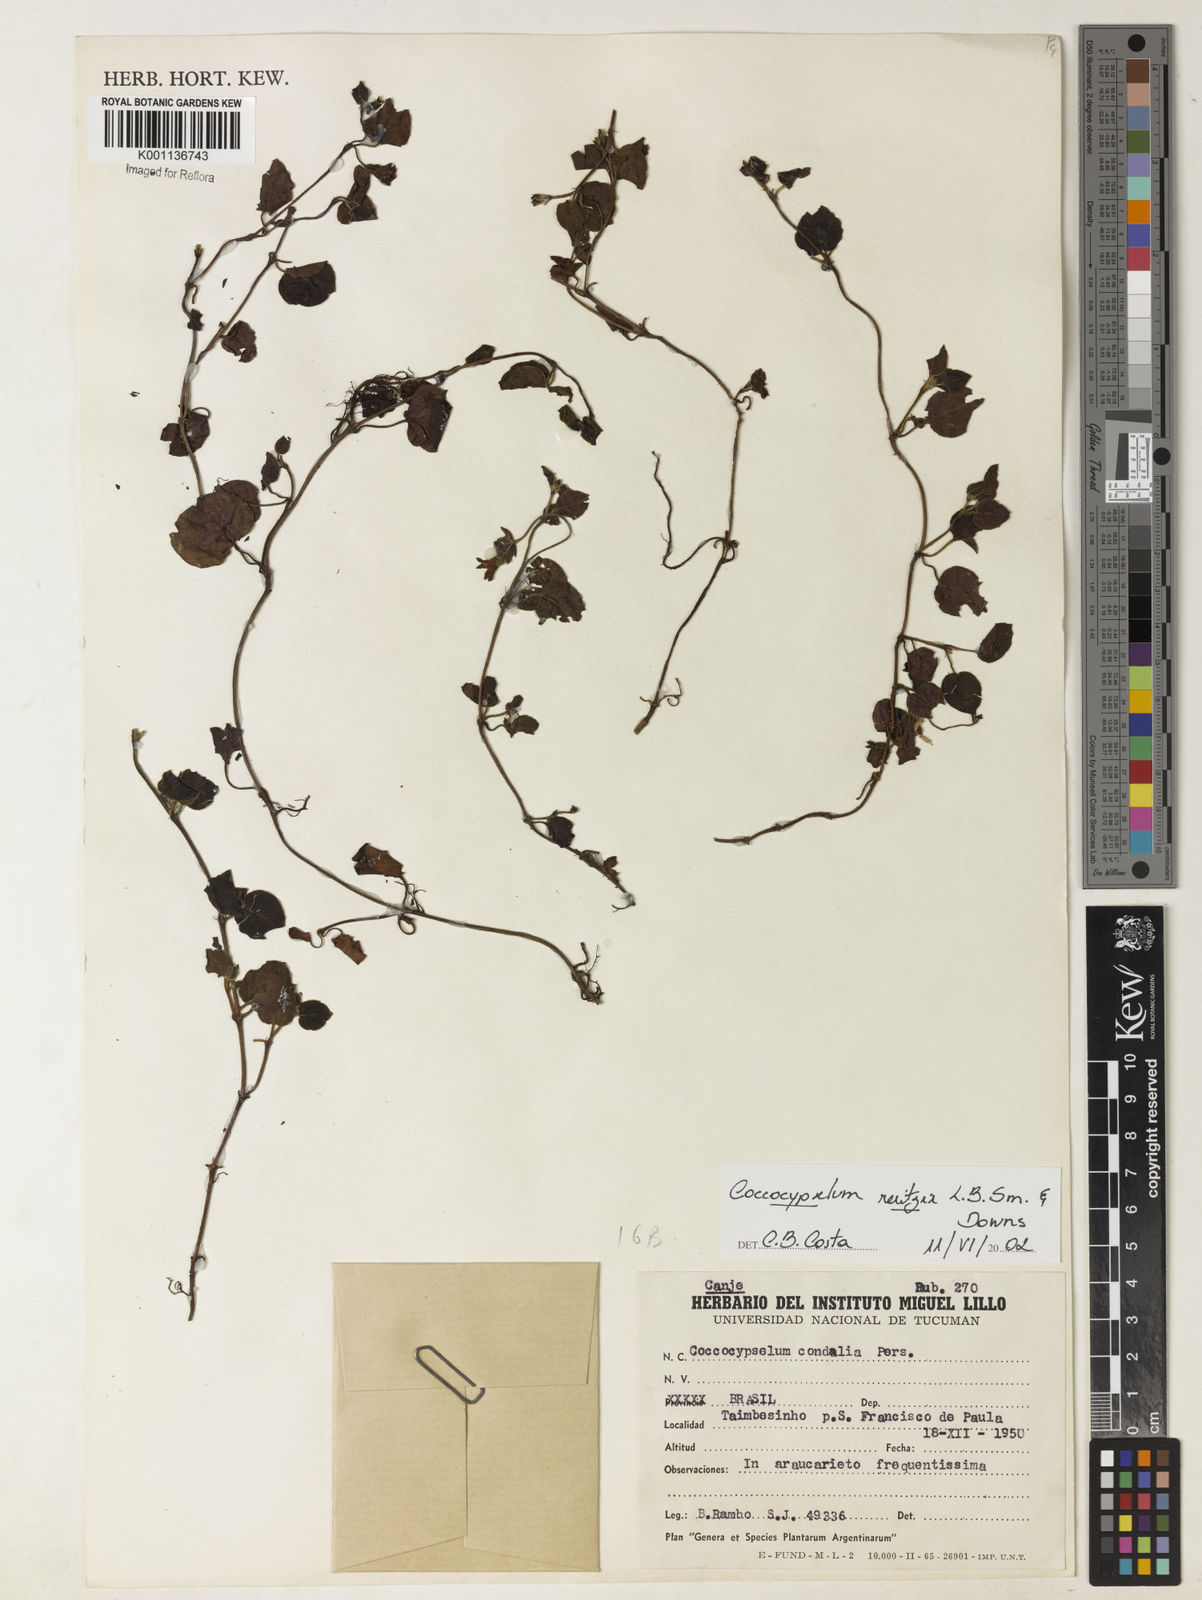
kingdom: Plantae
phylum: Tracheophyta
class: Magnoliopsida
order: Gentianales
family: Rubiaceae
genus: Coccocypselum
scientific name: Coccocypselum pulchellum
